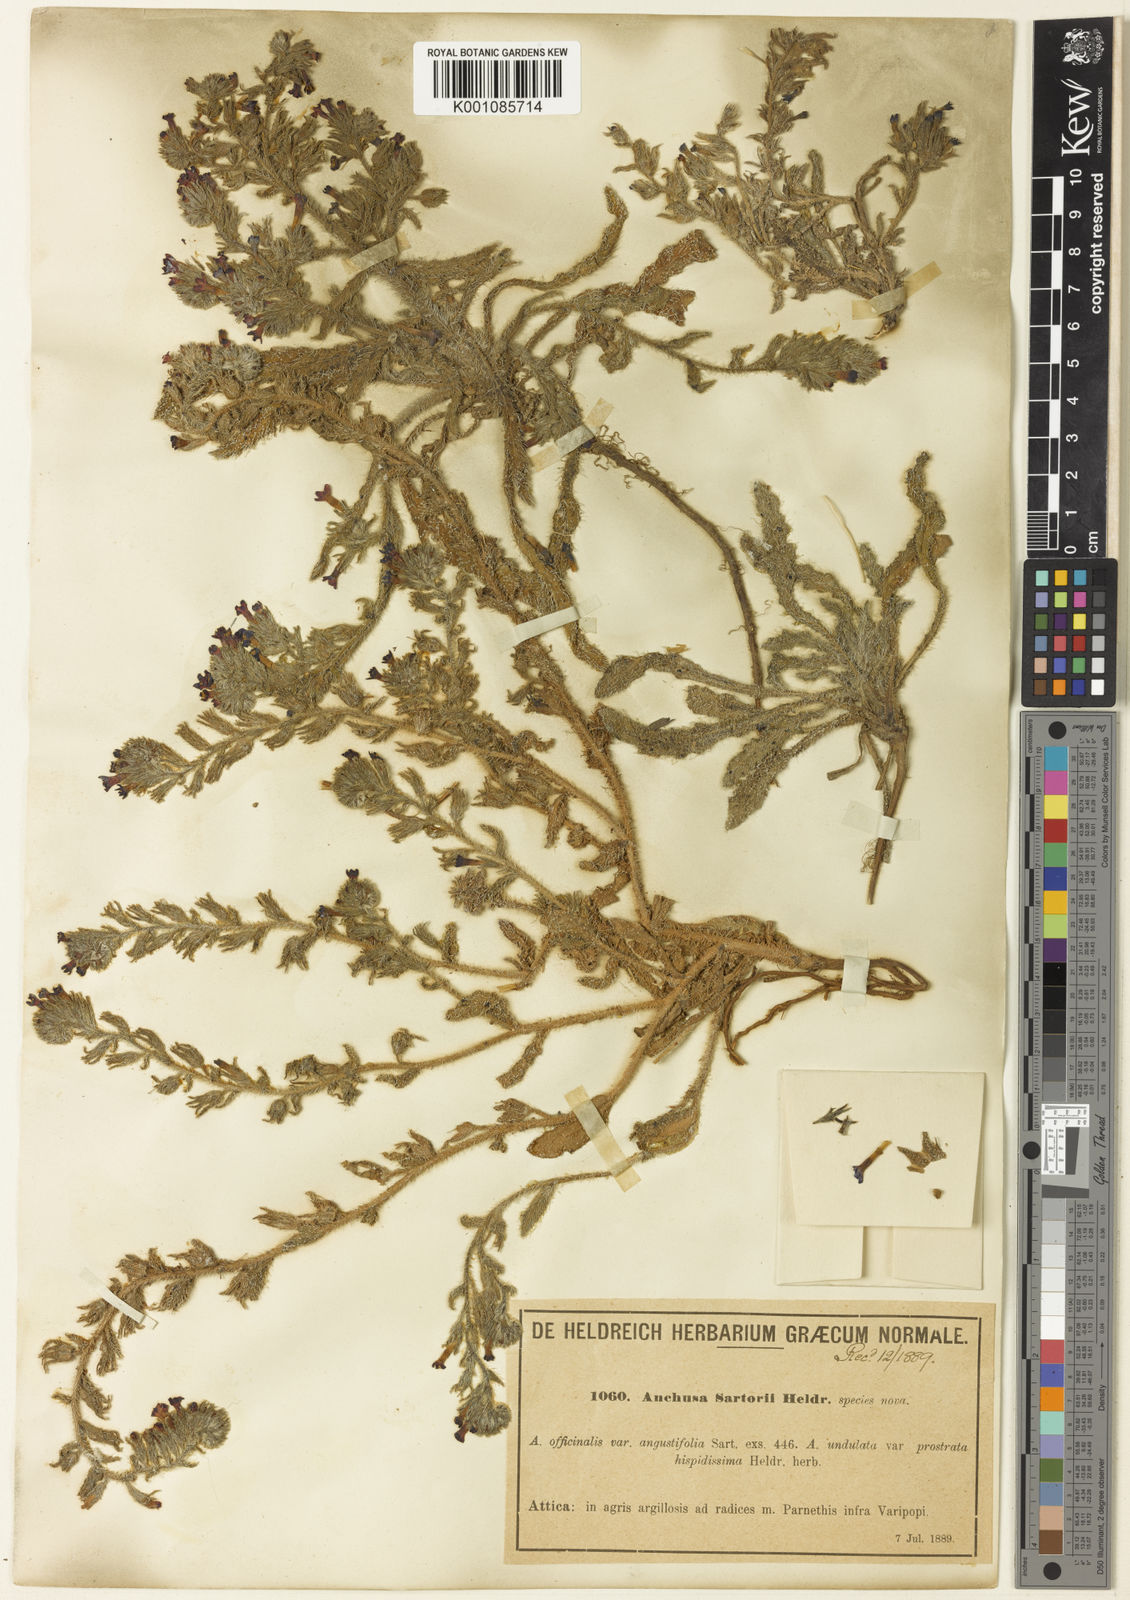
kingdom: Plantae
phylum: Tracheophyta
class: Magnoliopsida
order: Boraginales
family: Boraginaceae
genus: Anchusa
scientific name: Anchusa
